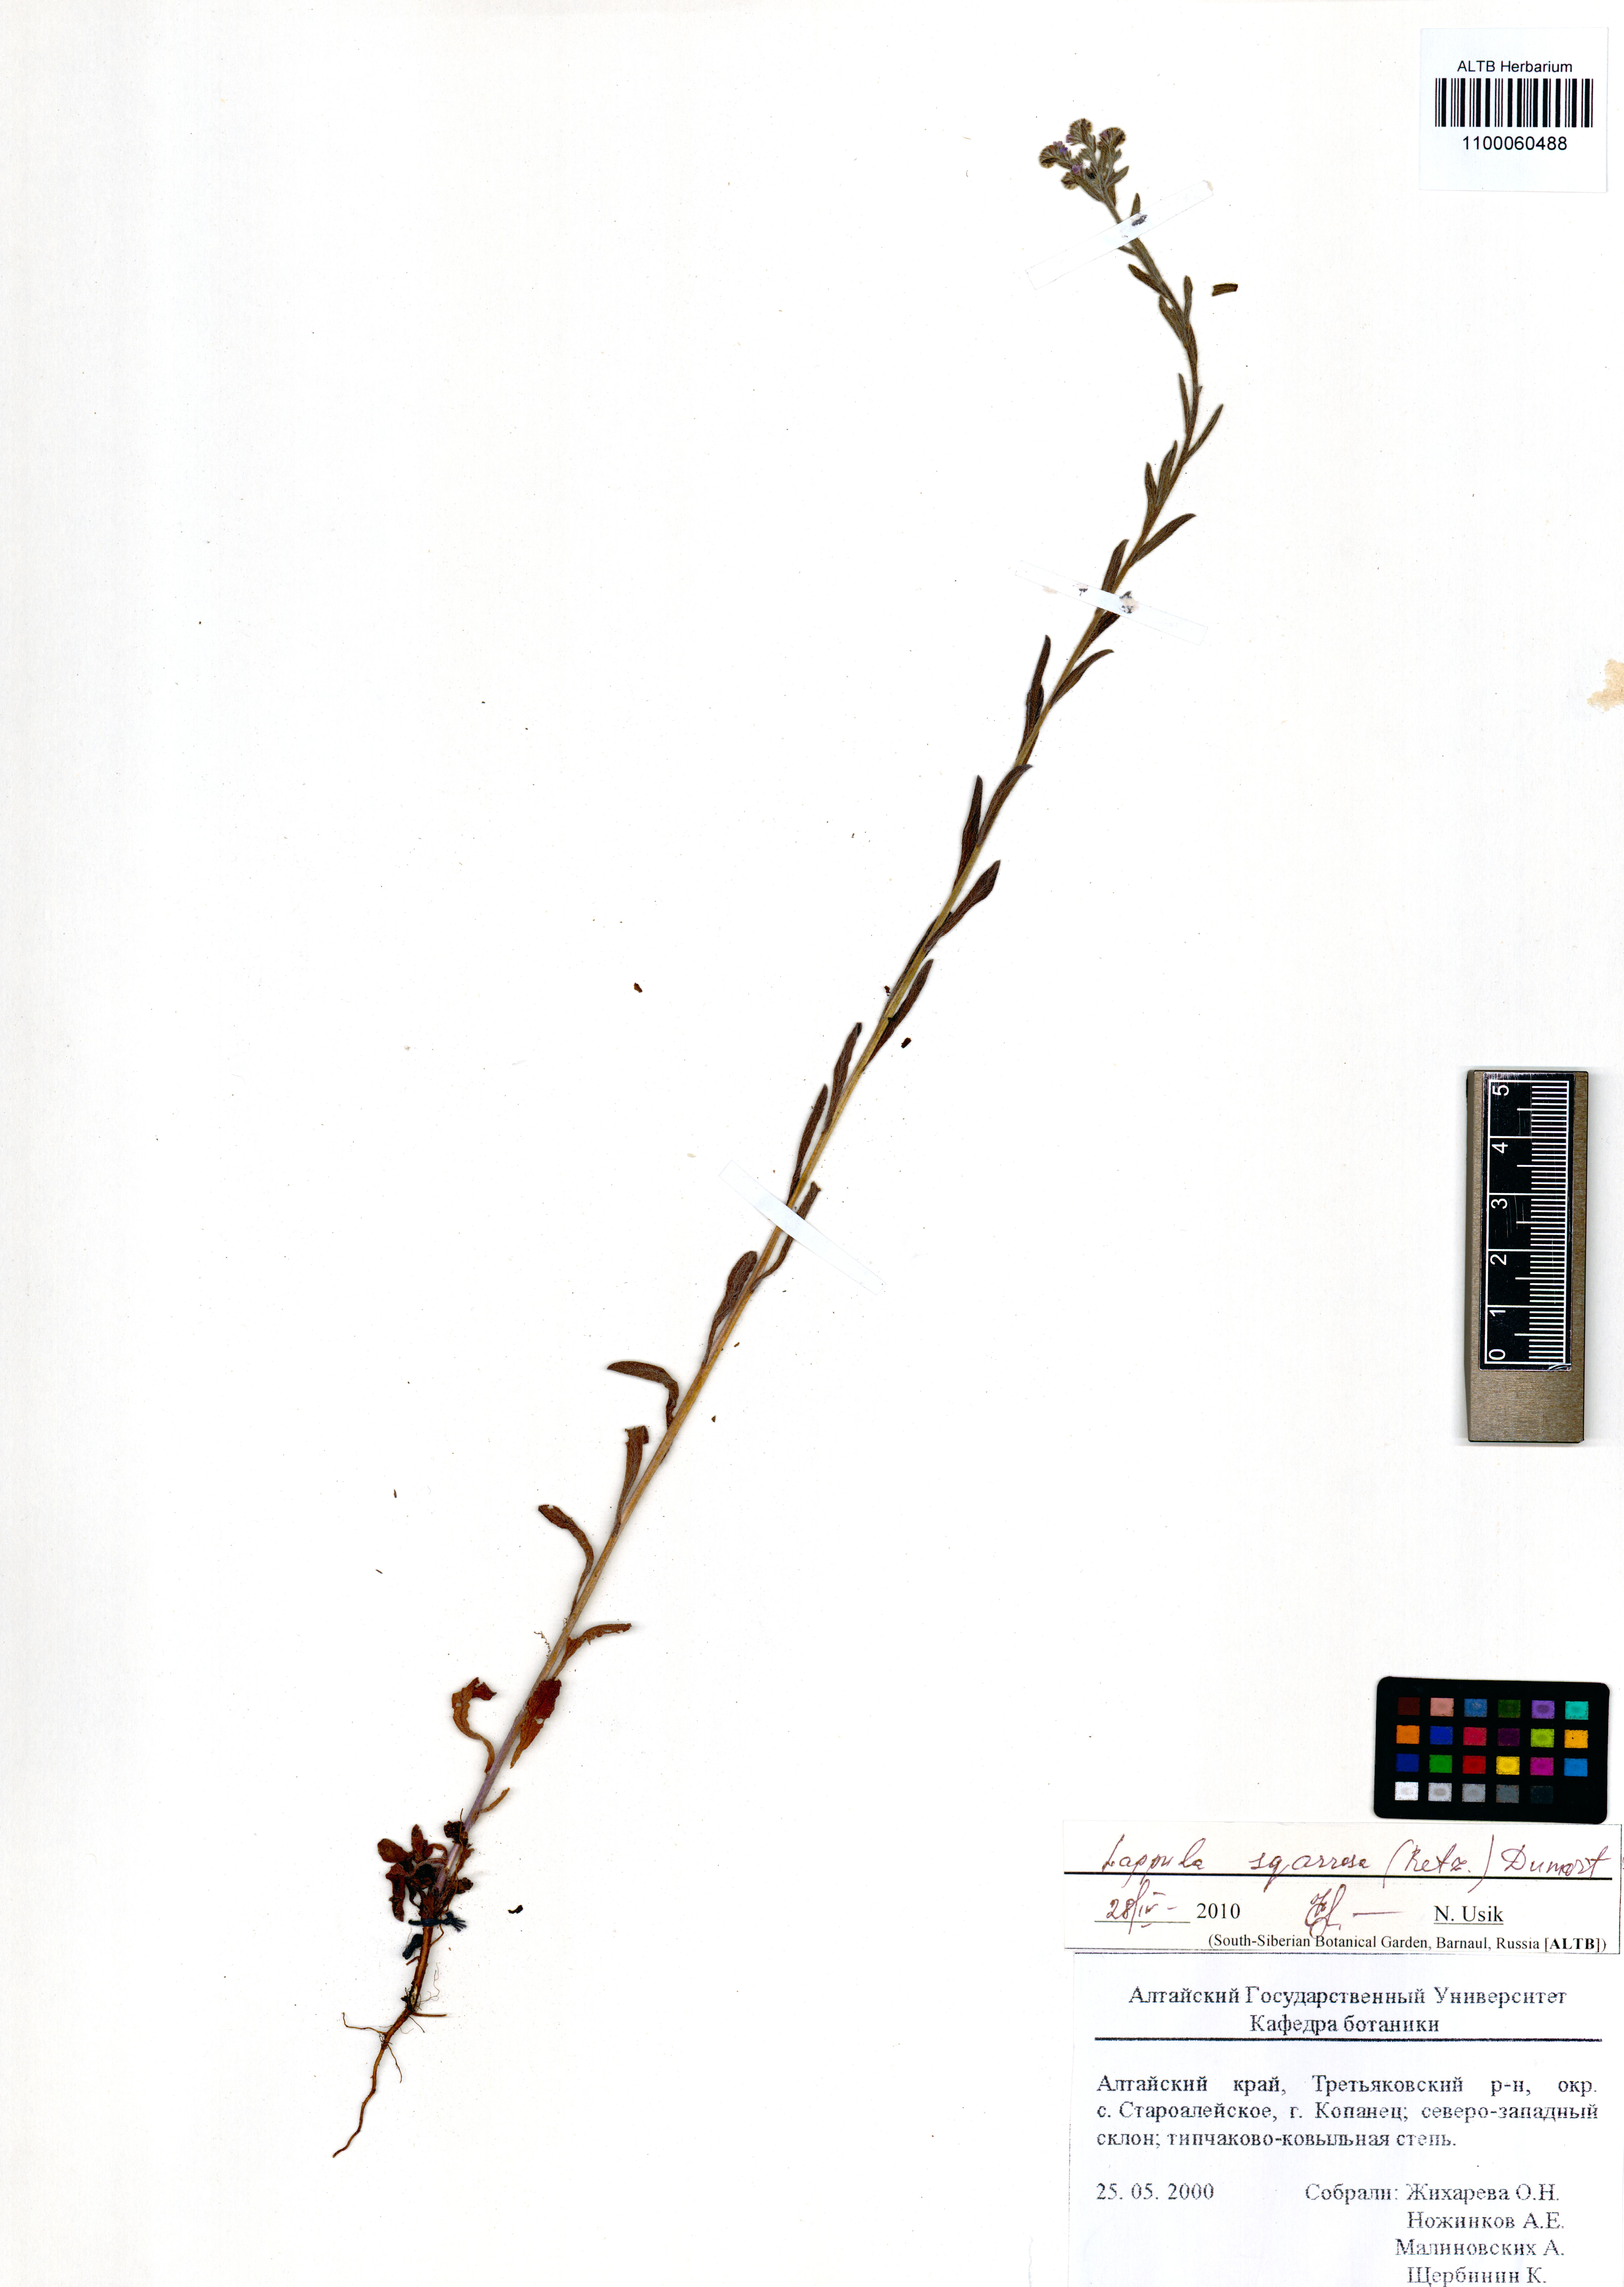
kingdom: Plantae
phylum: Tracheophyta
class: Magnoliopsida
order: Boraginales
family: Boraginaceae
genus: Lappula
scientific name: Lappula squarrosa
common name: European stickseed
